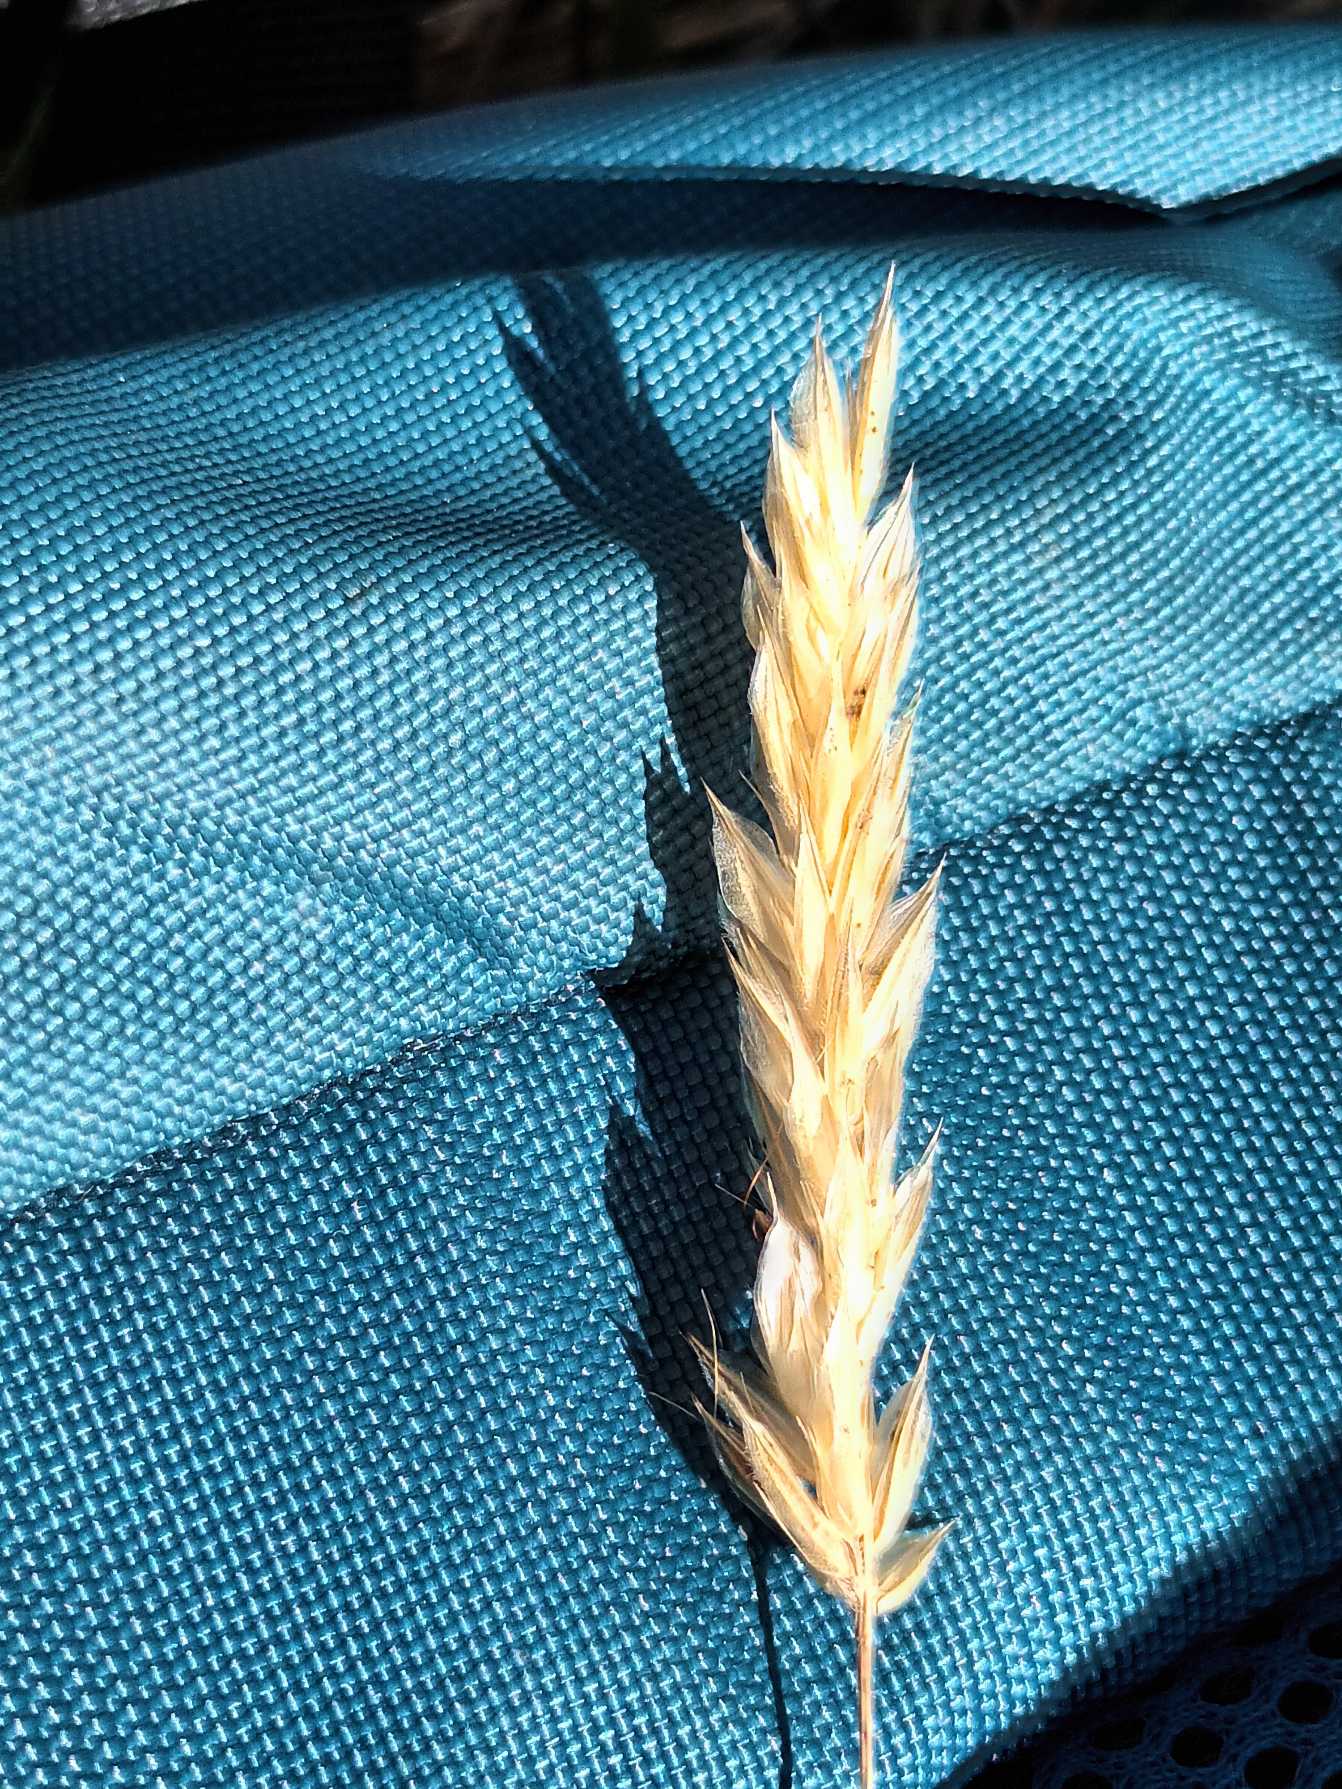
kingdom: Plantae
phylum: Tracheophyta
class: Liliopsida
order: Poales
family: Poaceae
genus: Anthoxanthum
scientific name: Anthoxanthum odoratum
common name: Vellugtende gulaks
